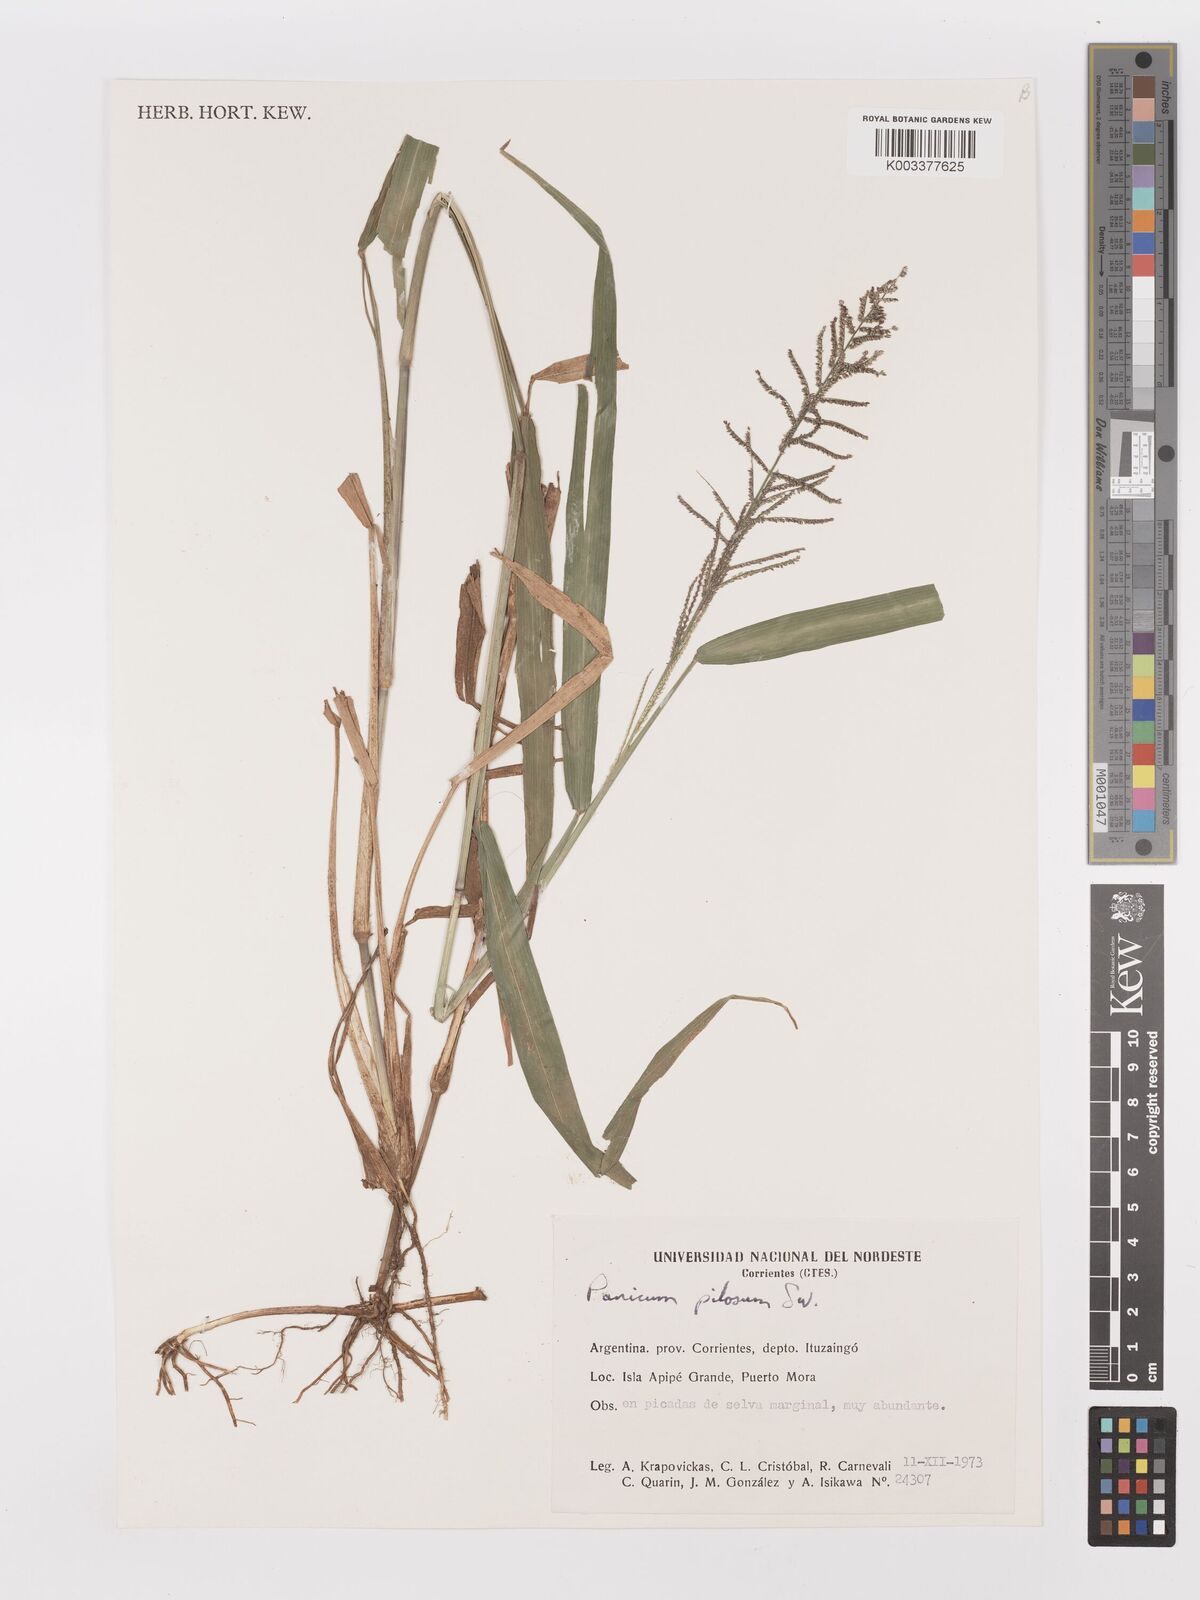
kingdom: Plantae
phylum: Tracheophyta
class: Liliopsida
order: Poales
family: Poaceae
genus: Rugoloa
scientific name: Rugoloa pilosa
